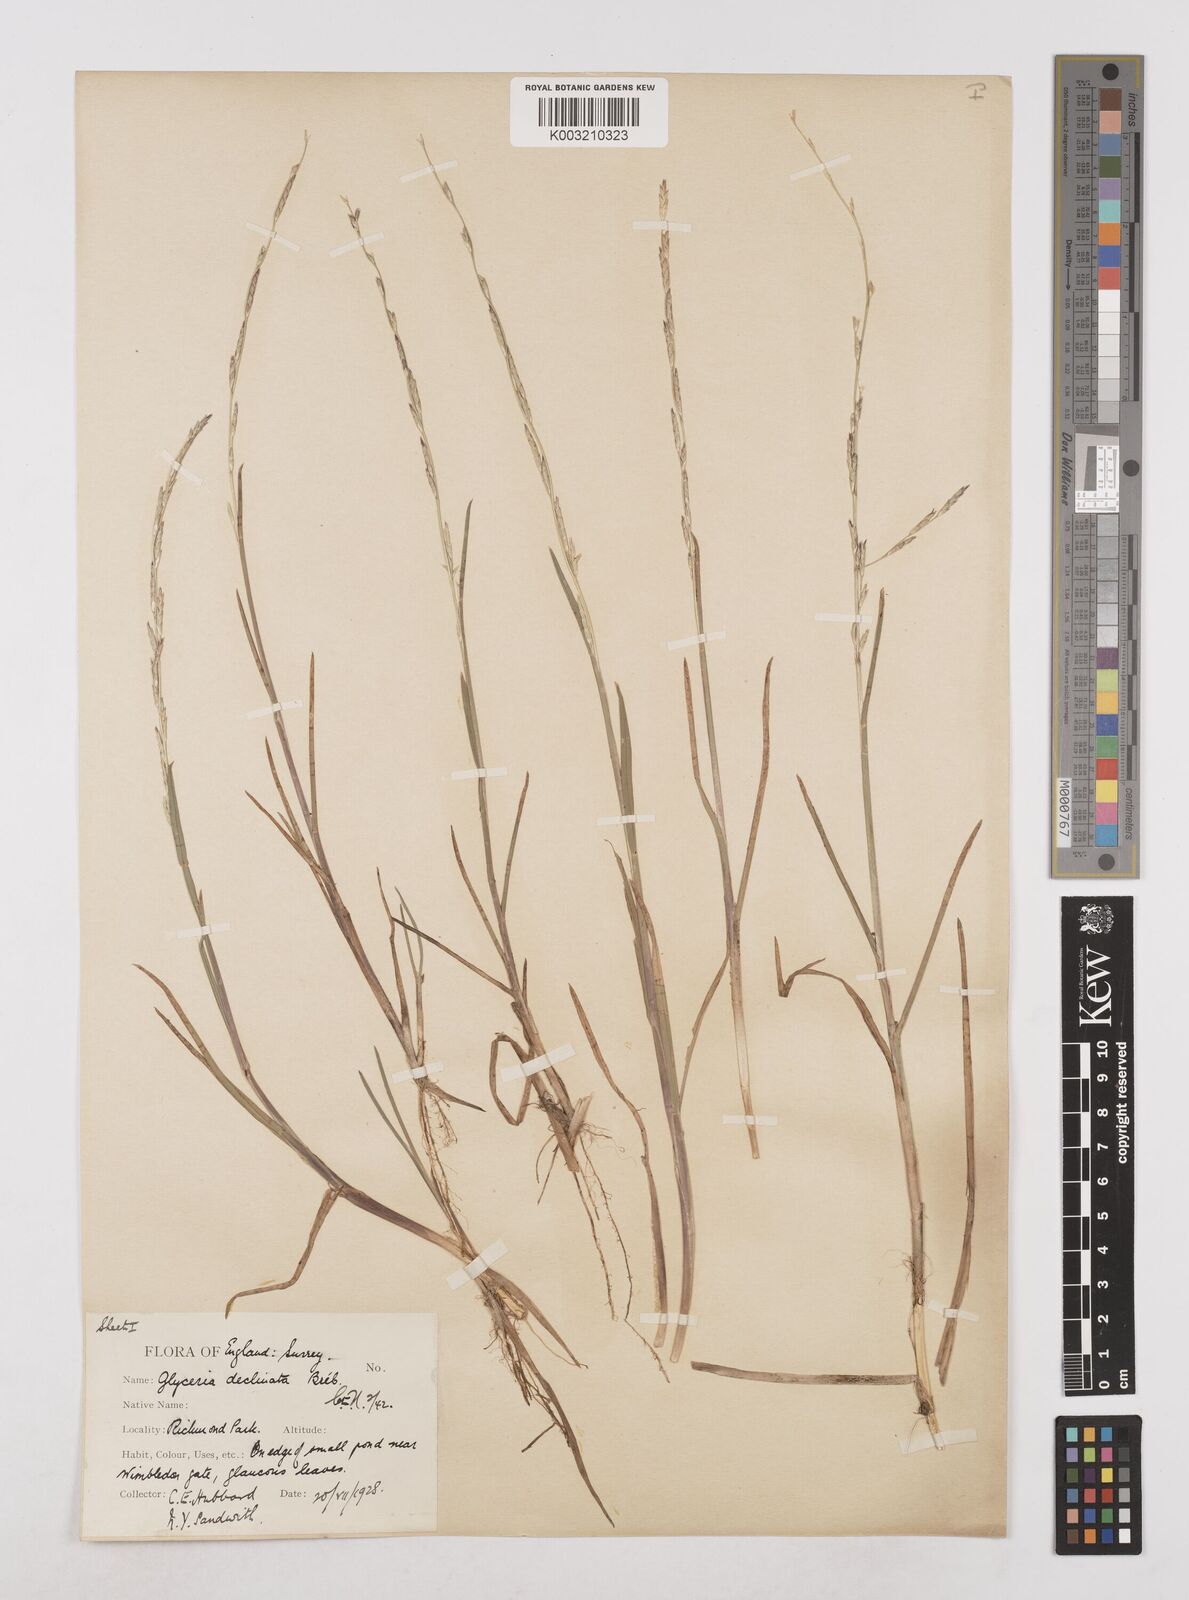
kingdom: Plantae
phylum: Tracheophyta
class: Liliopsida
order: Poales
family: Poaceae
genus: Glyceria
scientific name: Glyceria declinata
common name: Small sweet-grass
